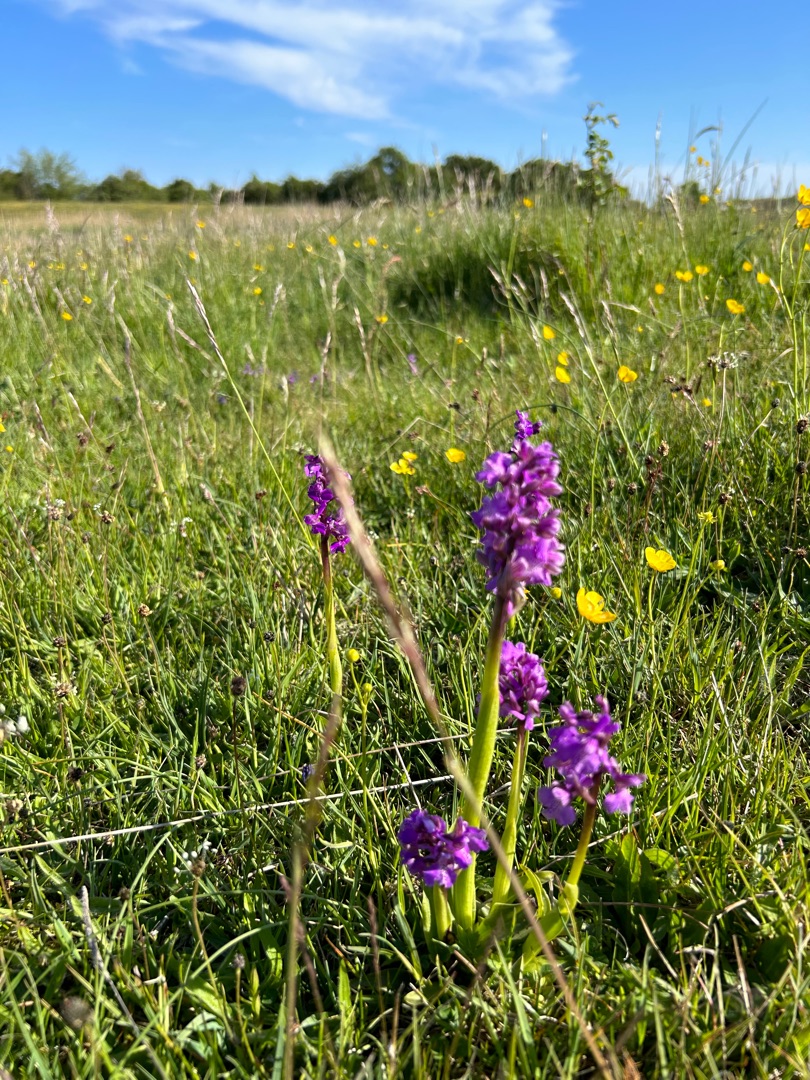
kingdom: Plantae
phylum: Tracheophyta
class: Liliopsida
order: Asparagales
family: Orchidaceae
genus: Anacamptis
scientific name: Anacamptis morio
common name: Salepgøgeurt
